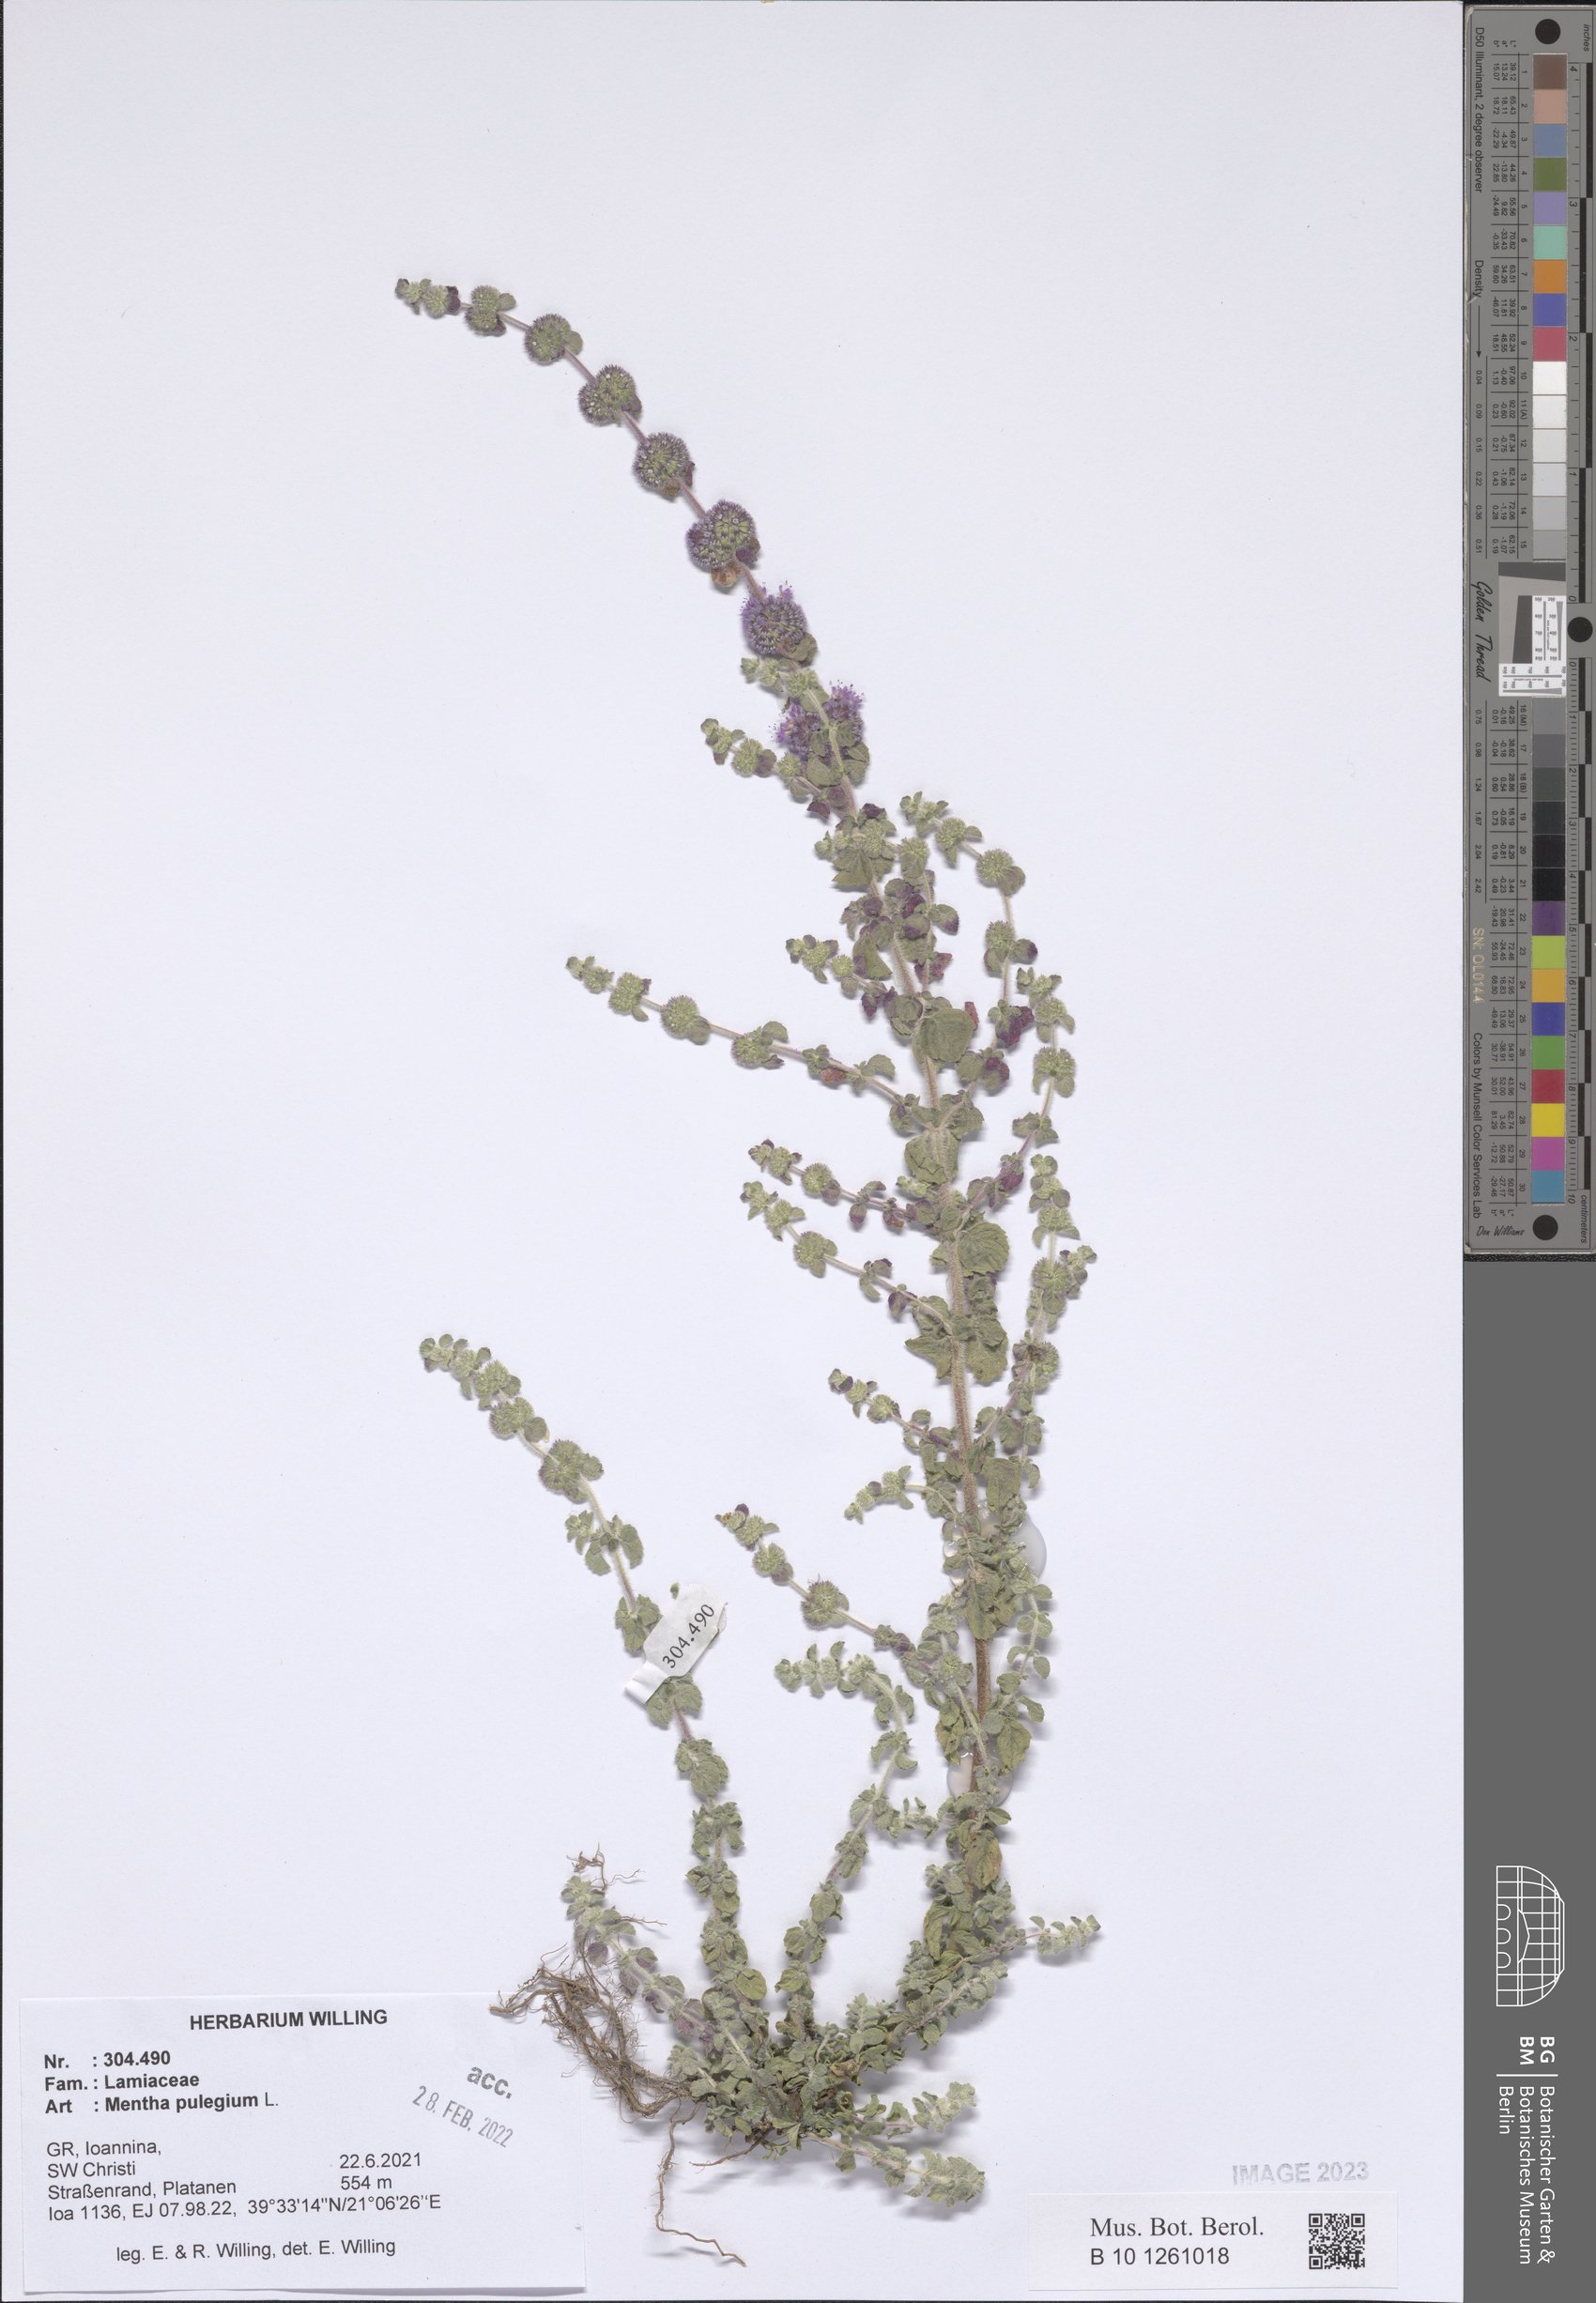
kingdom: Plantae
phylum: Tracheophyta
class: Magnoliopsida
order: Lamiales
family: Lamiaceae
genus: Mentha
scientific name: Mentha pulegium
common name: Pennyroyal
